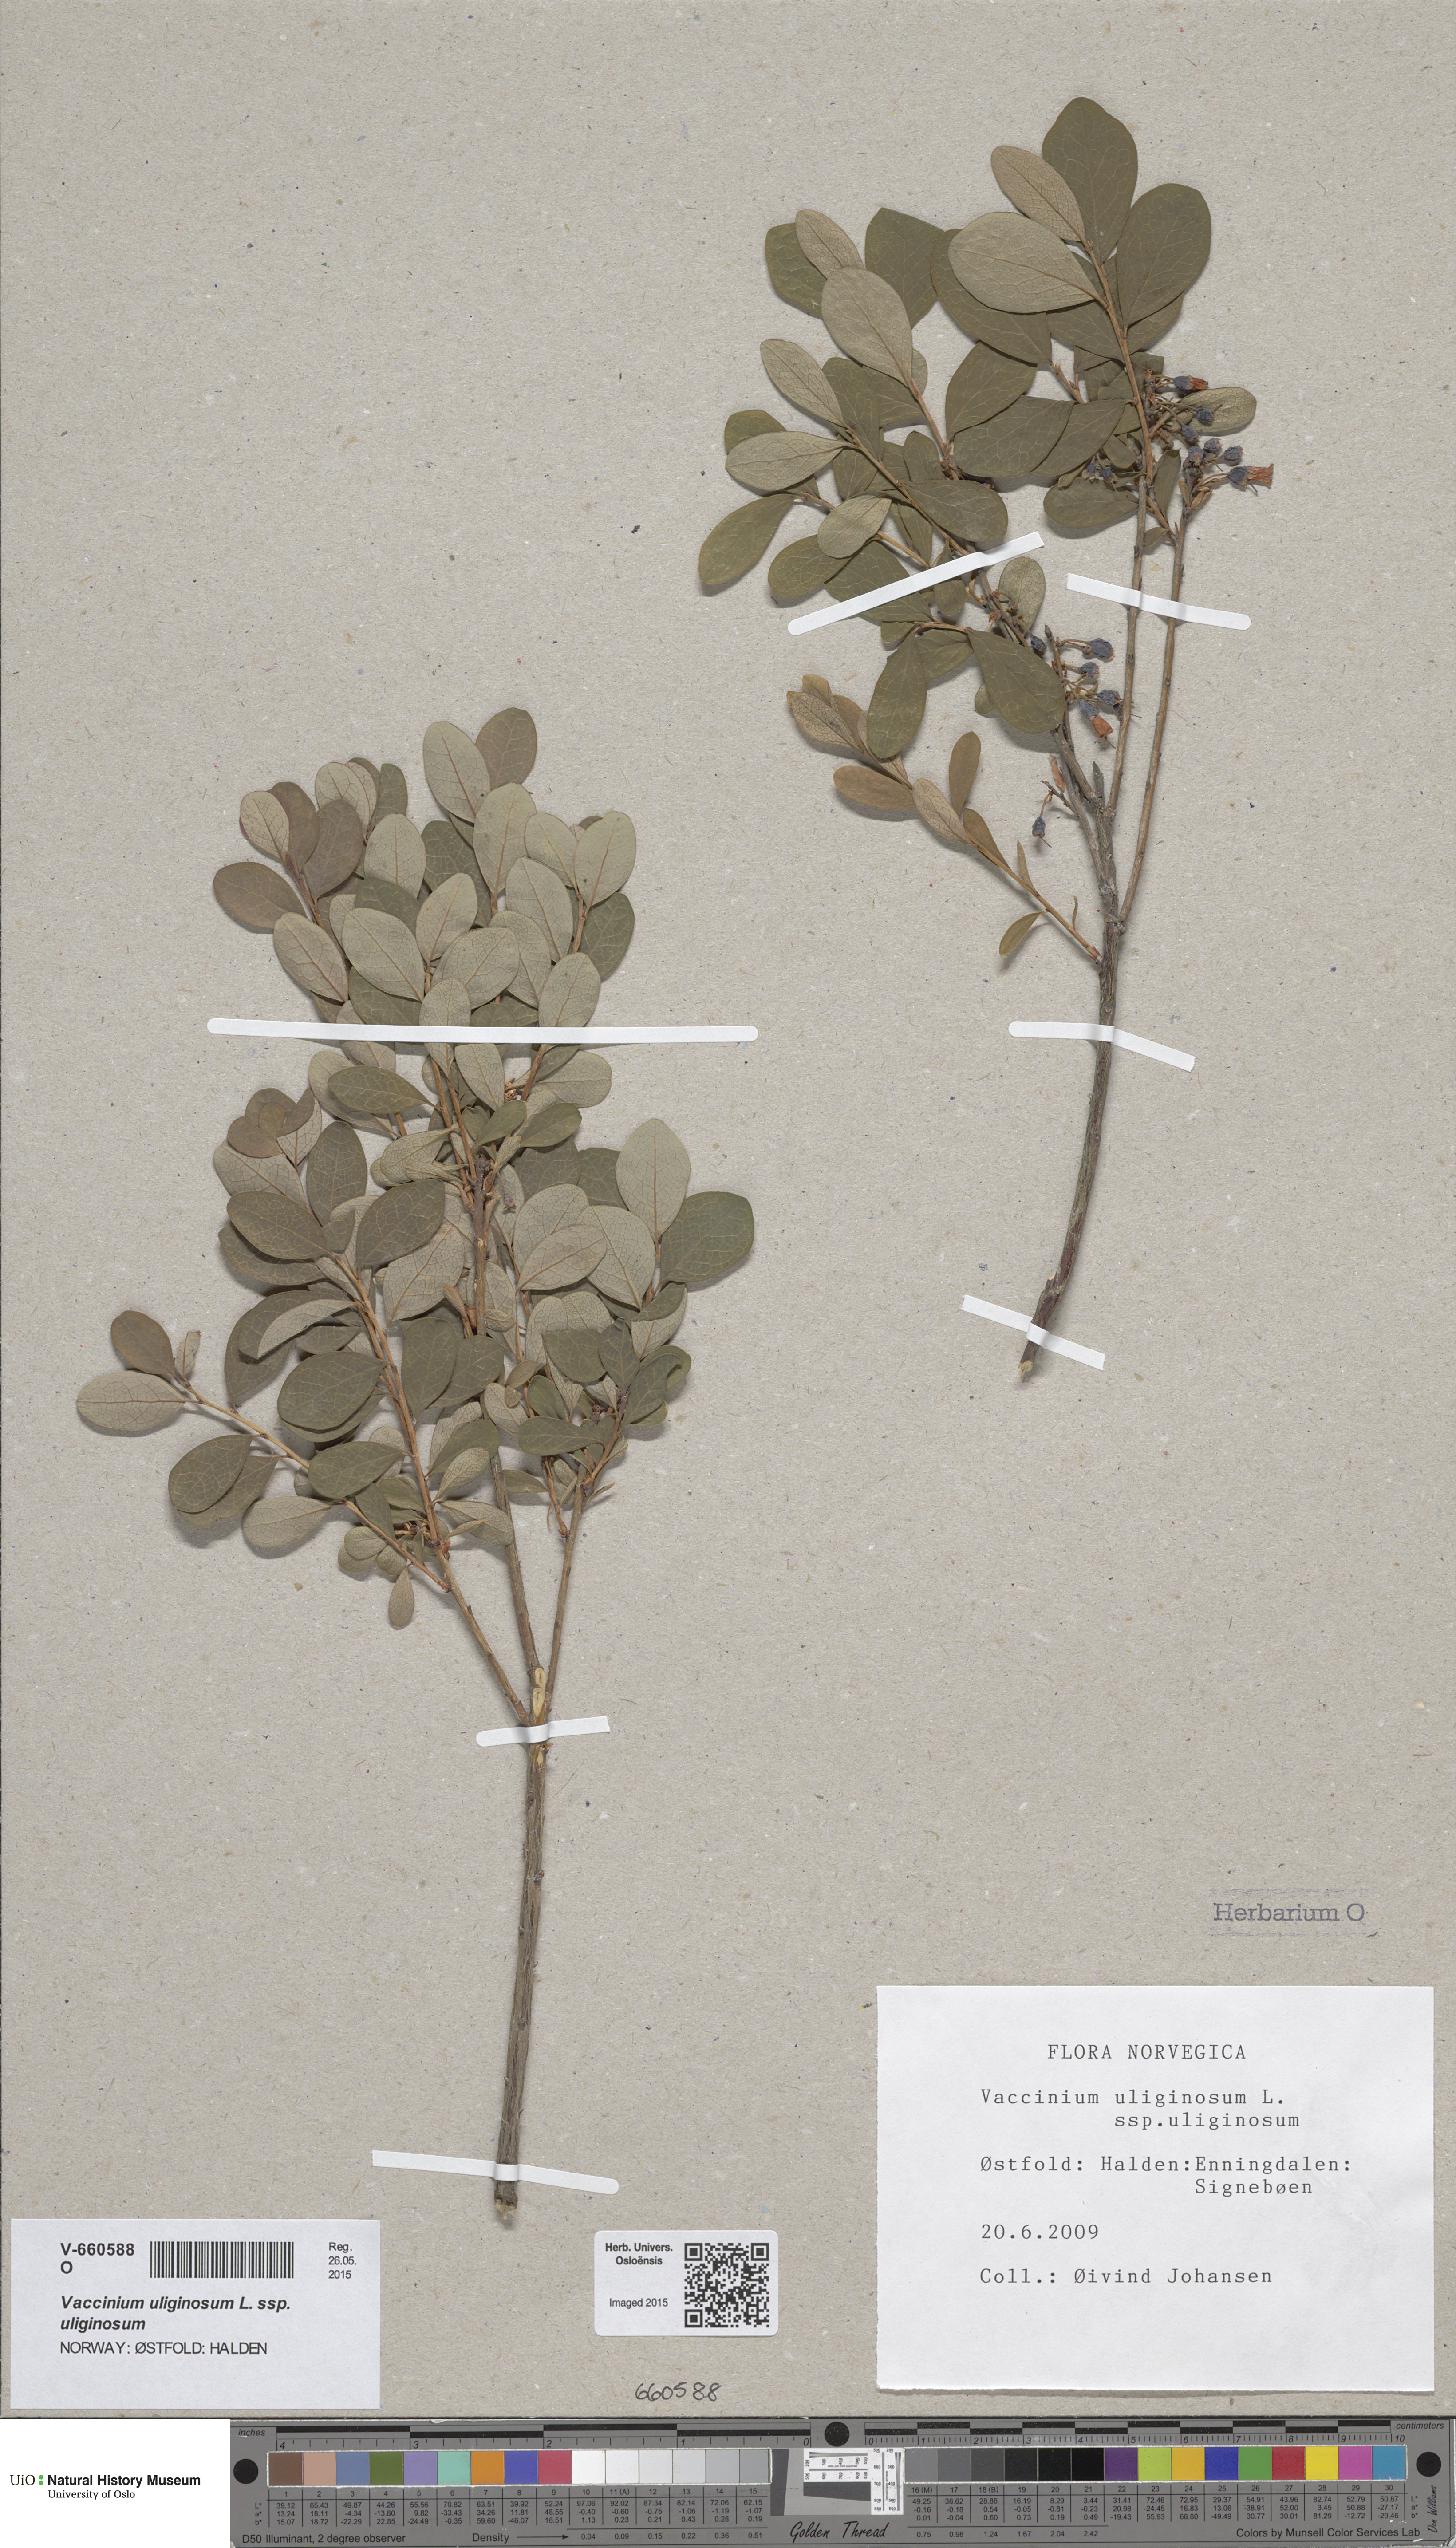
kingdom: Plantae
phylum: Tracheophyta
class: Magnoliopsida
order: Ericales
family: Ericaceae
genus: Vaccinium
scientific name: Vaccinium uliginosum
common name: Bog bilberry
